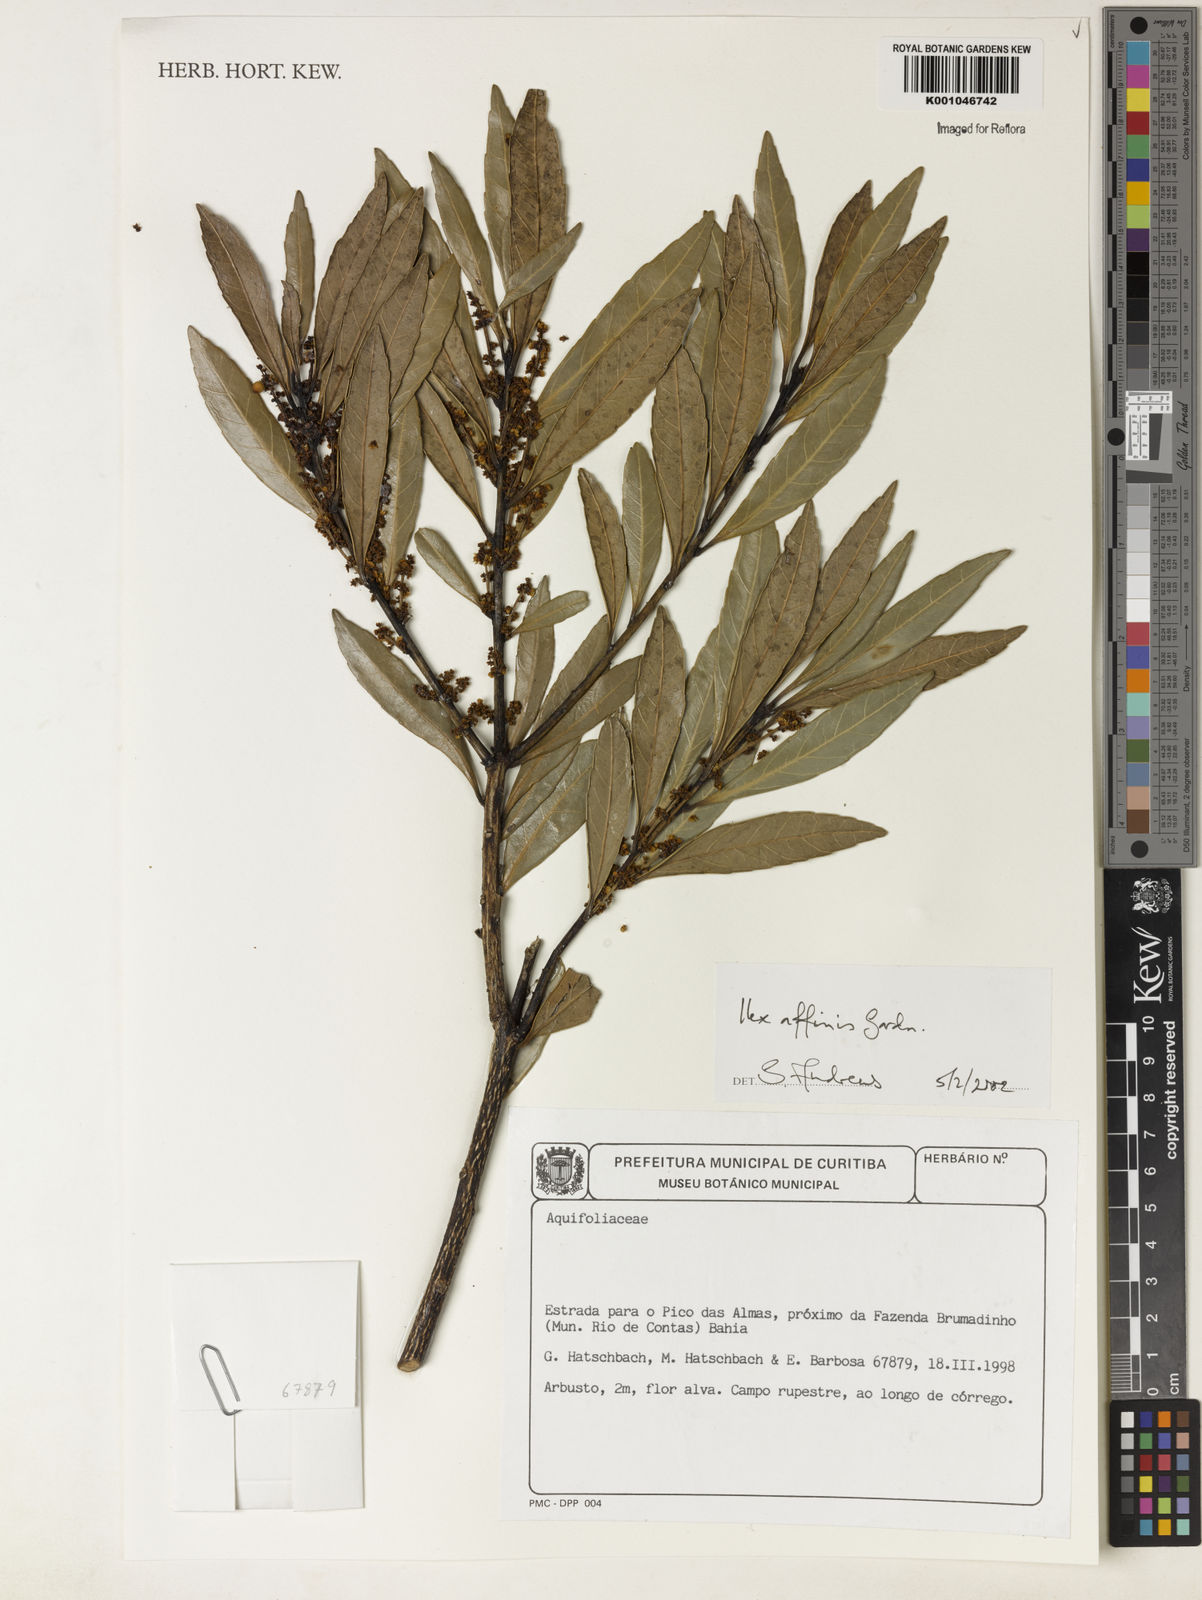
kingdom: Plantae
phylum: Tracheophyta
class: Magnoliopsida
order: Aquifoliales
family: Aquifoliaceae
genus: Ilex
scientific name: Ilex affinis
